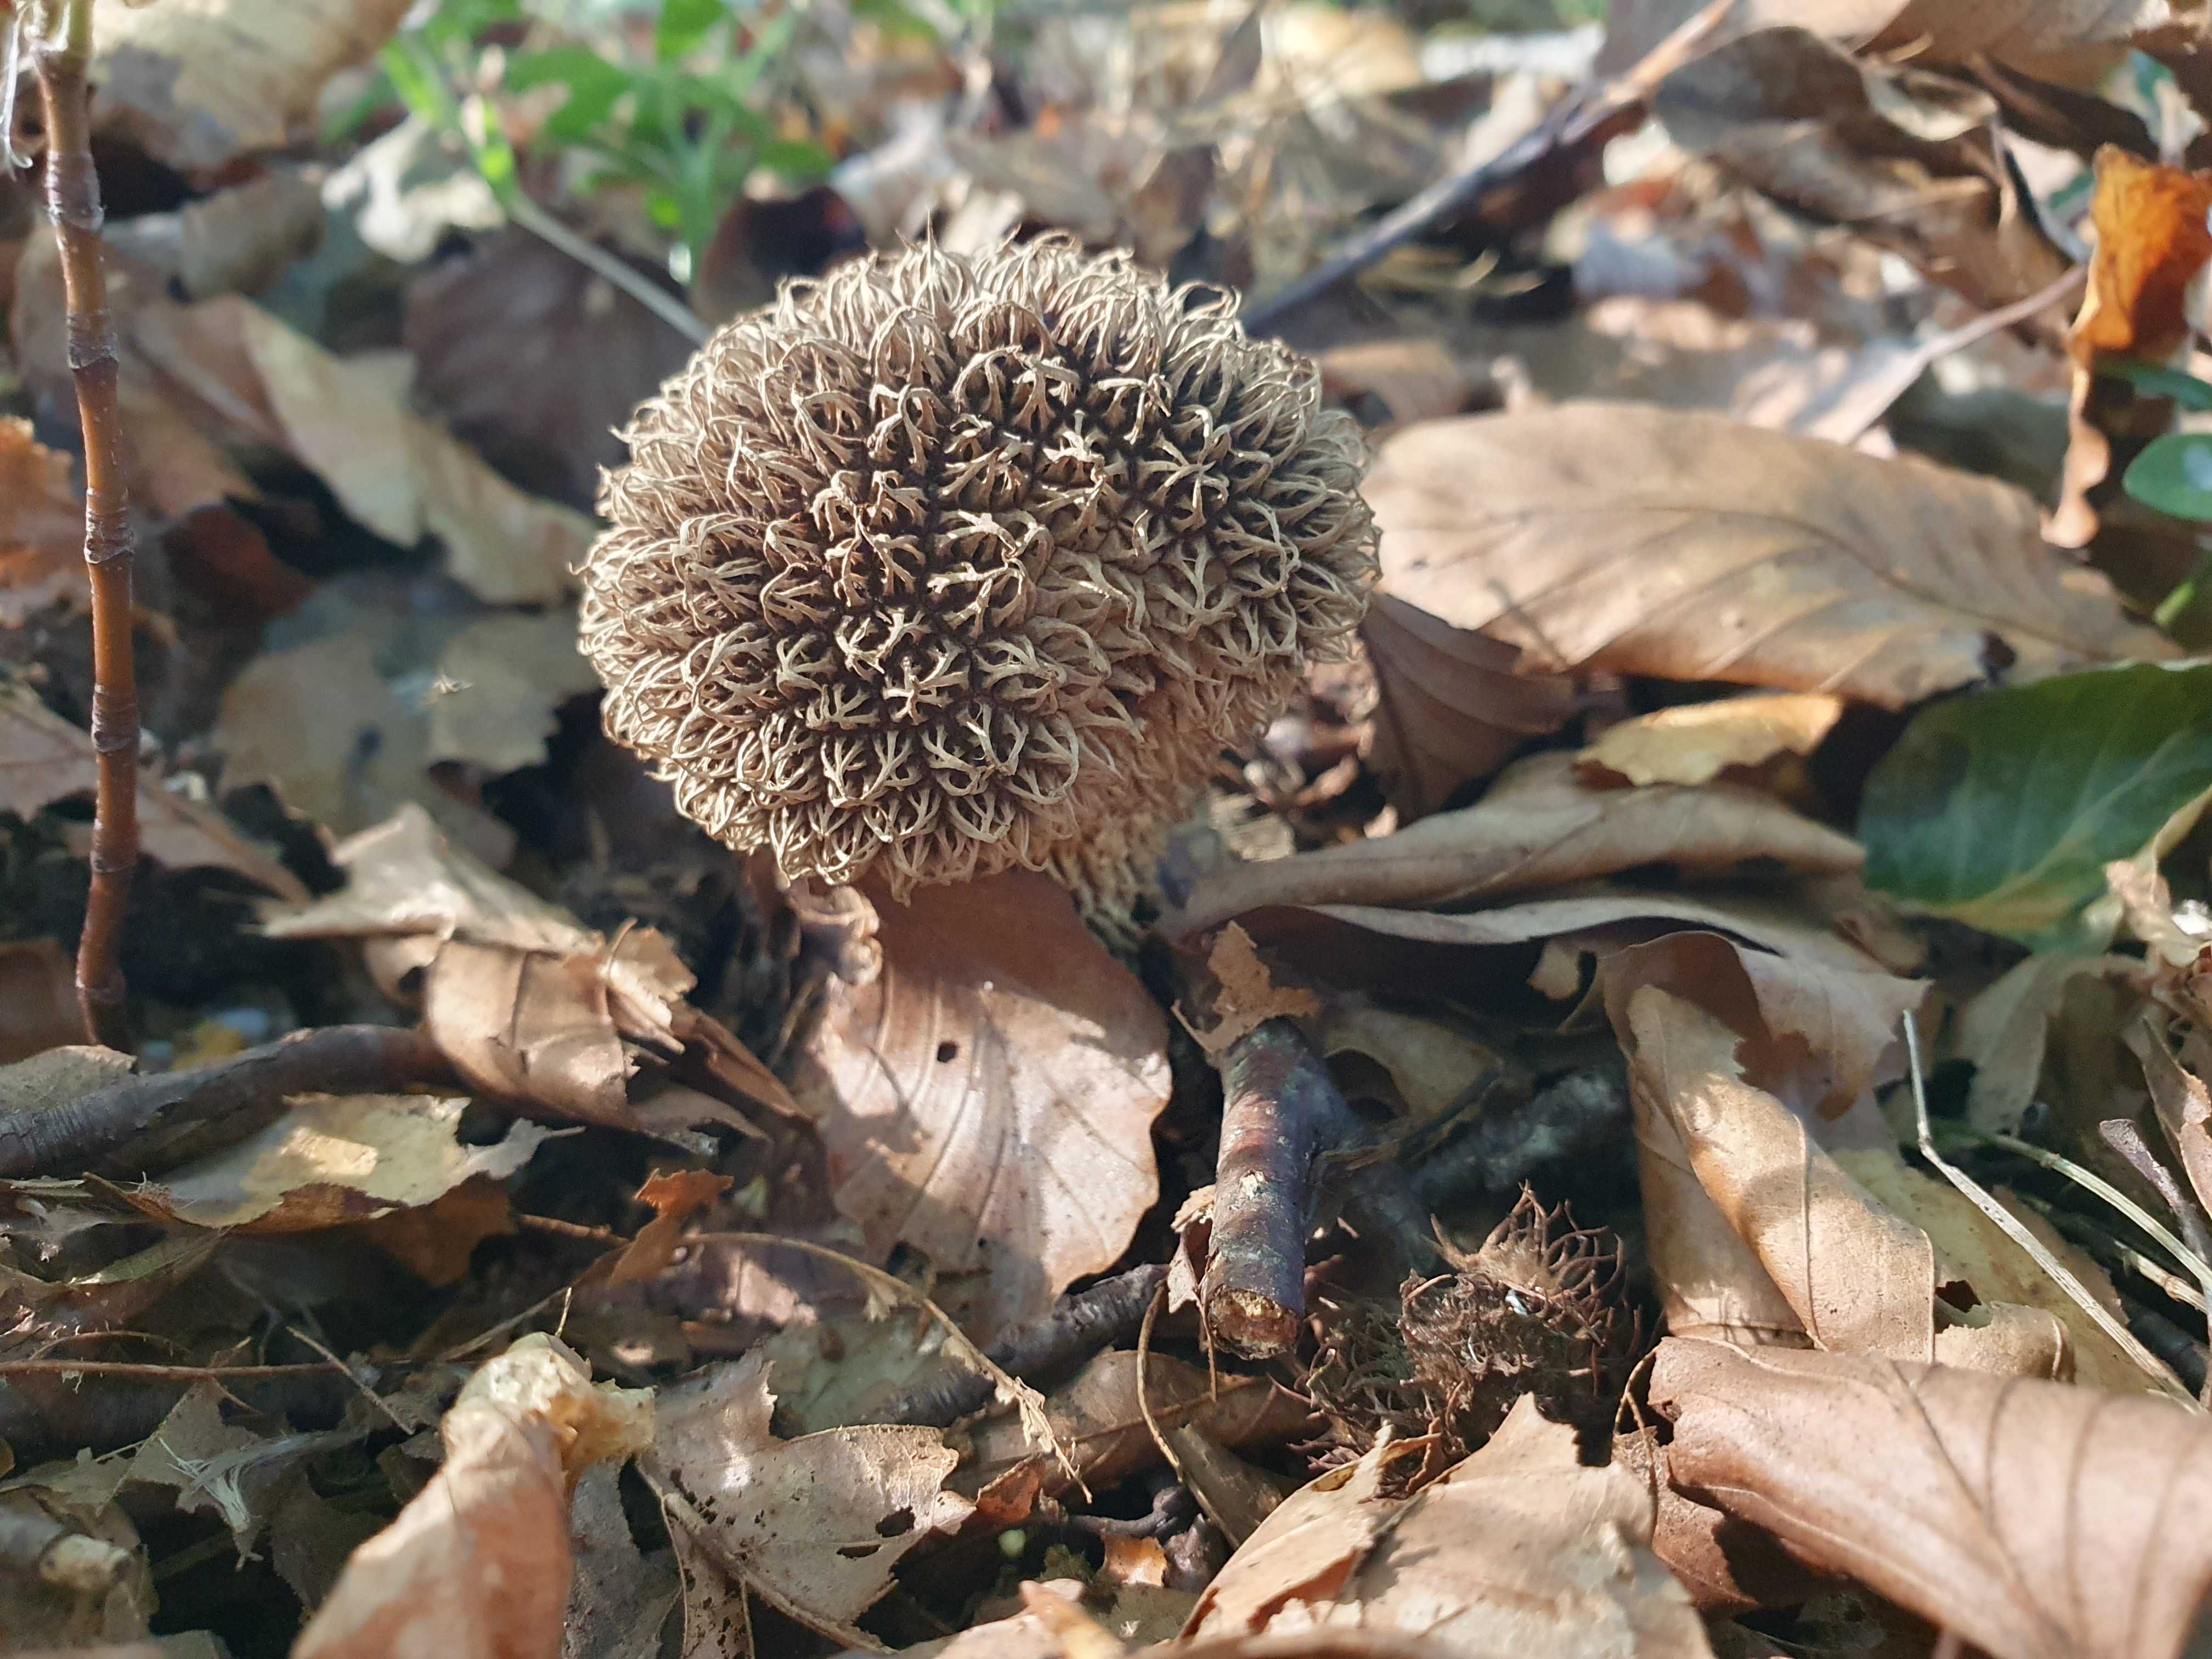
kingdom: Fungi
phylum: Basidiomycota
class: Agaricomycetes
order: Agaricales
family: Lycoperdaceae
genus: Lycoperdon
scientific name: Lycoperdon echinatum
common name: pindsvine-støvbold
